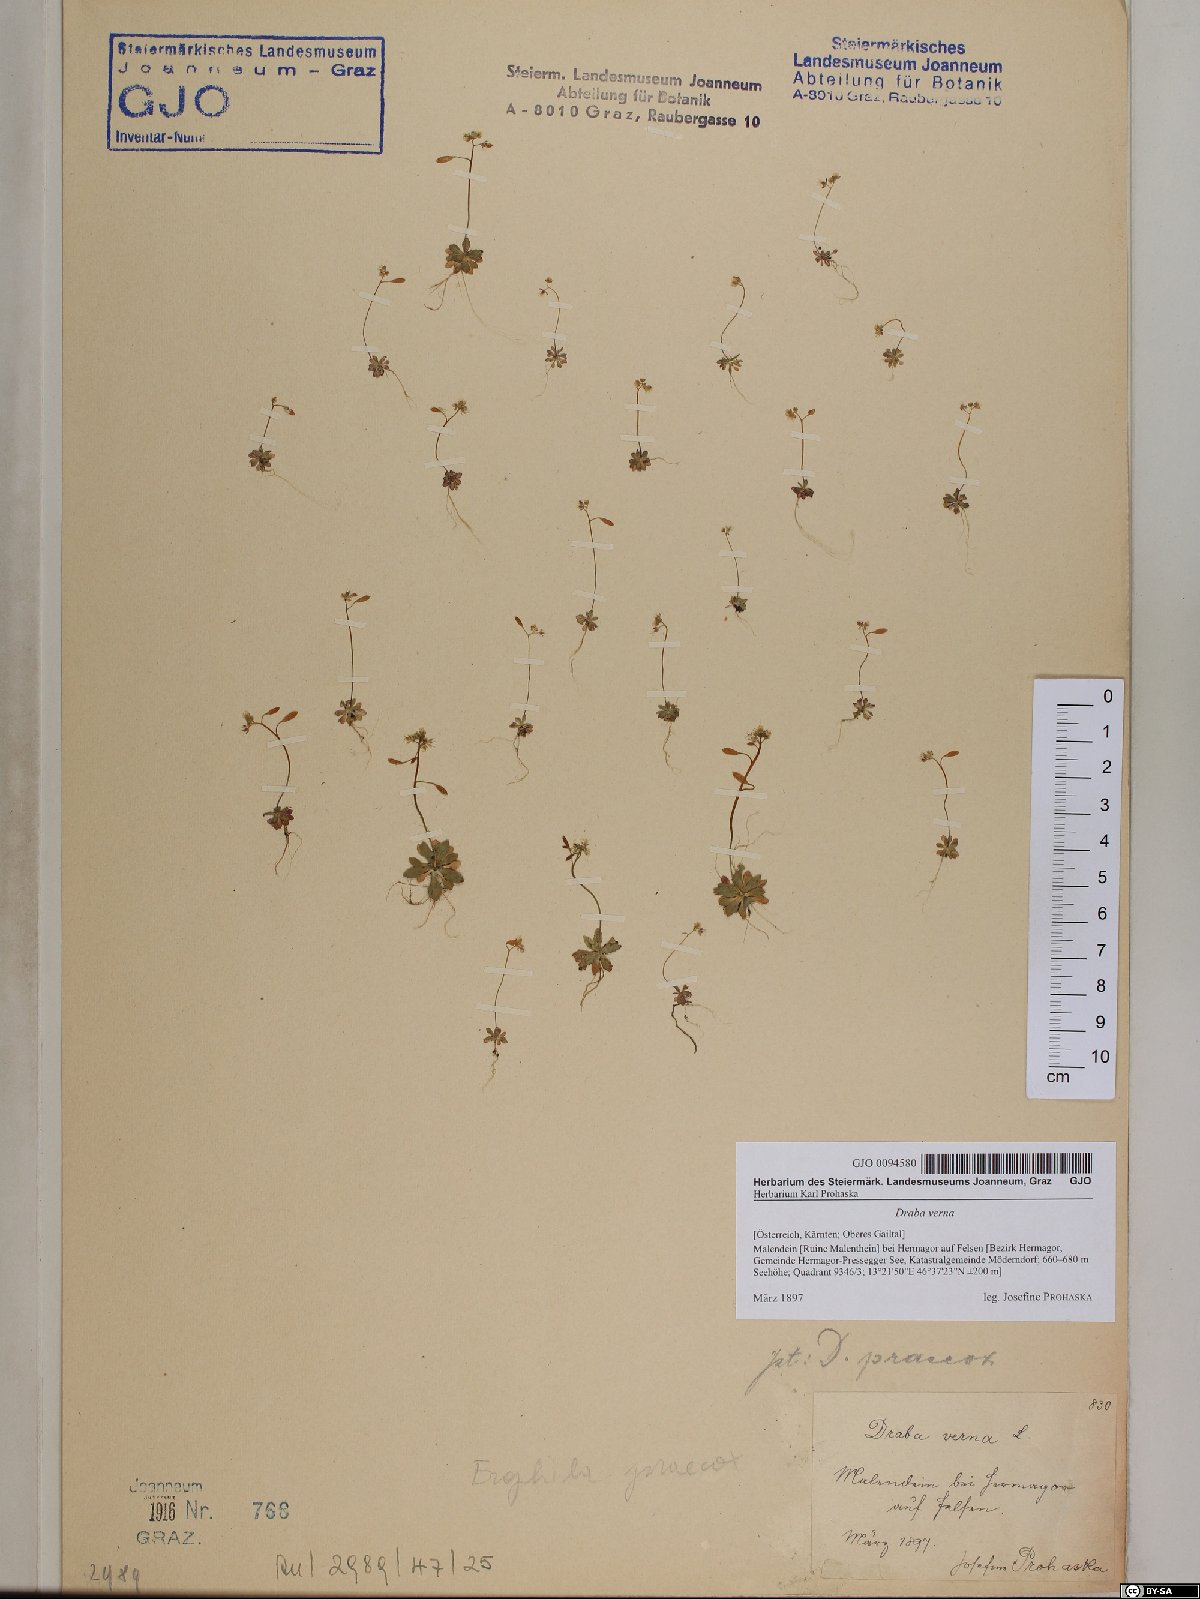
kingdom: Plantae
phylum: Tracheophyta
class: Magnoliopsida
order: Brassicales
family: Brassicaceae
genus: Draba
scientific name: Draba verna
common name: Spring draba
